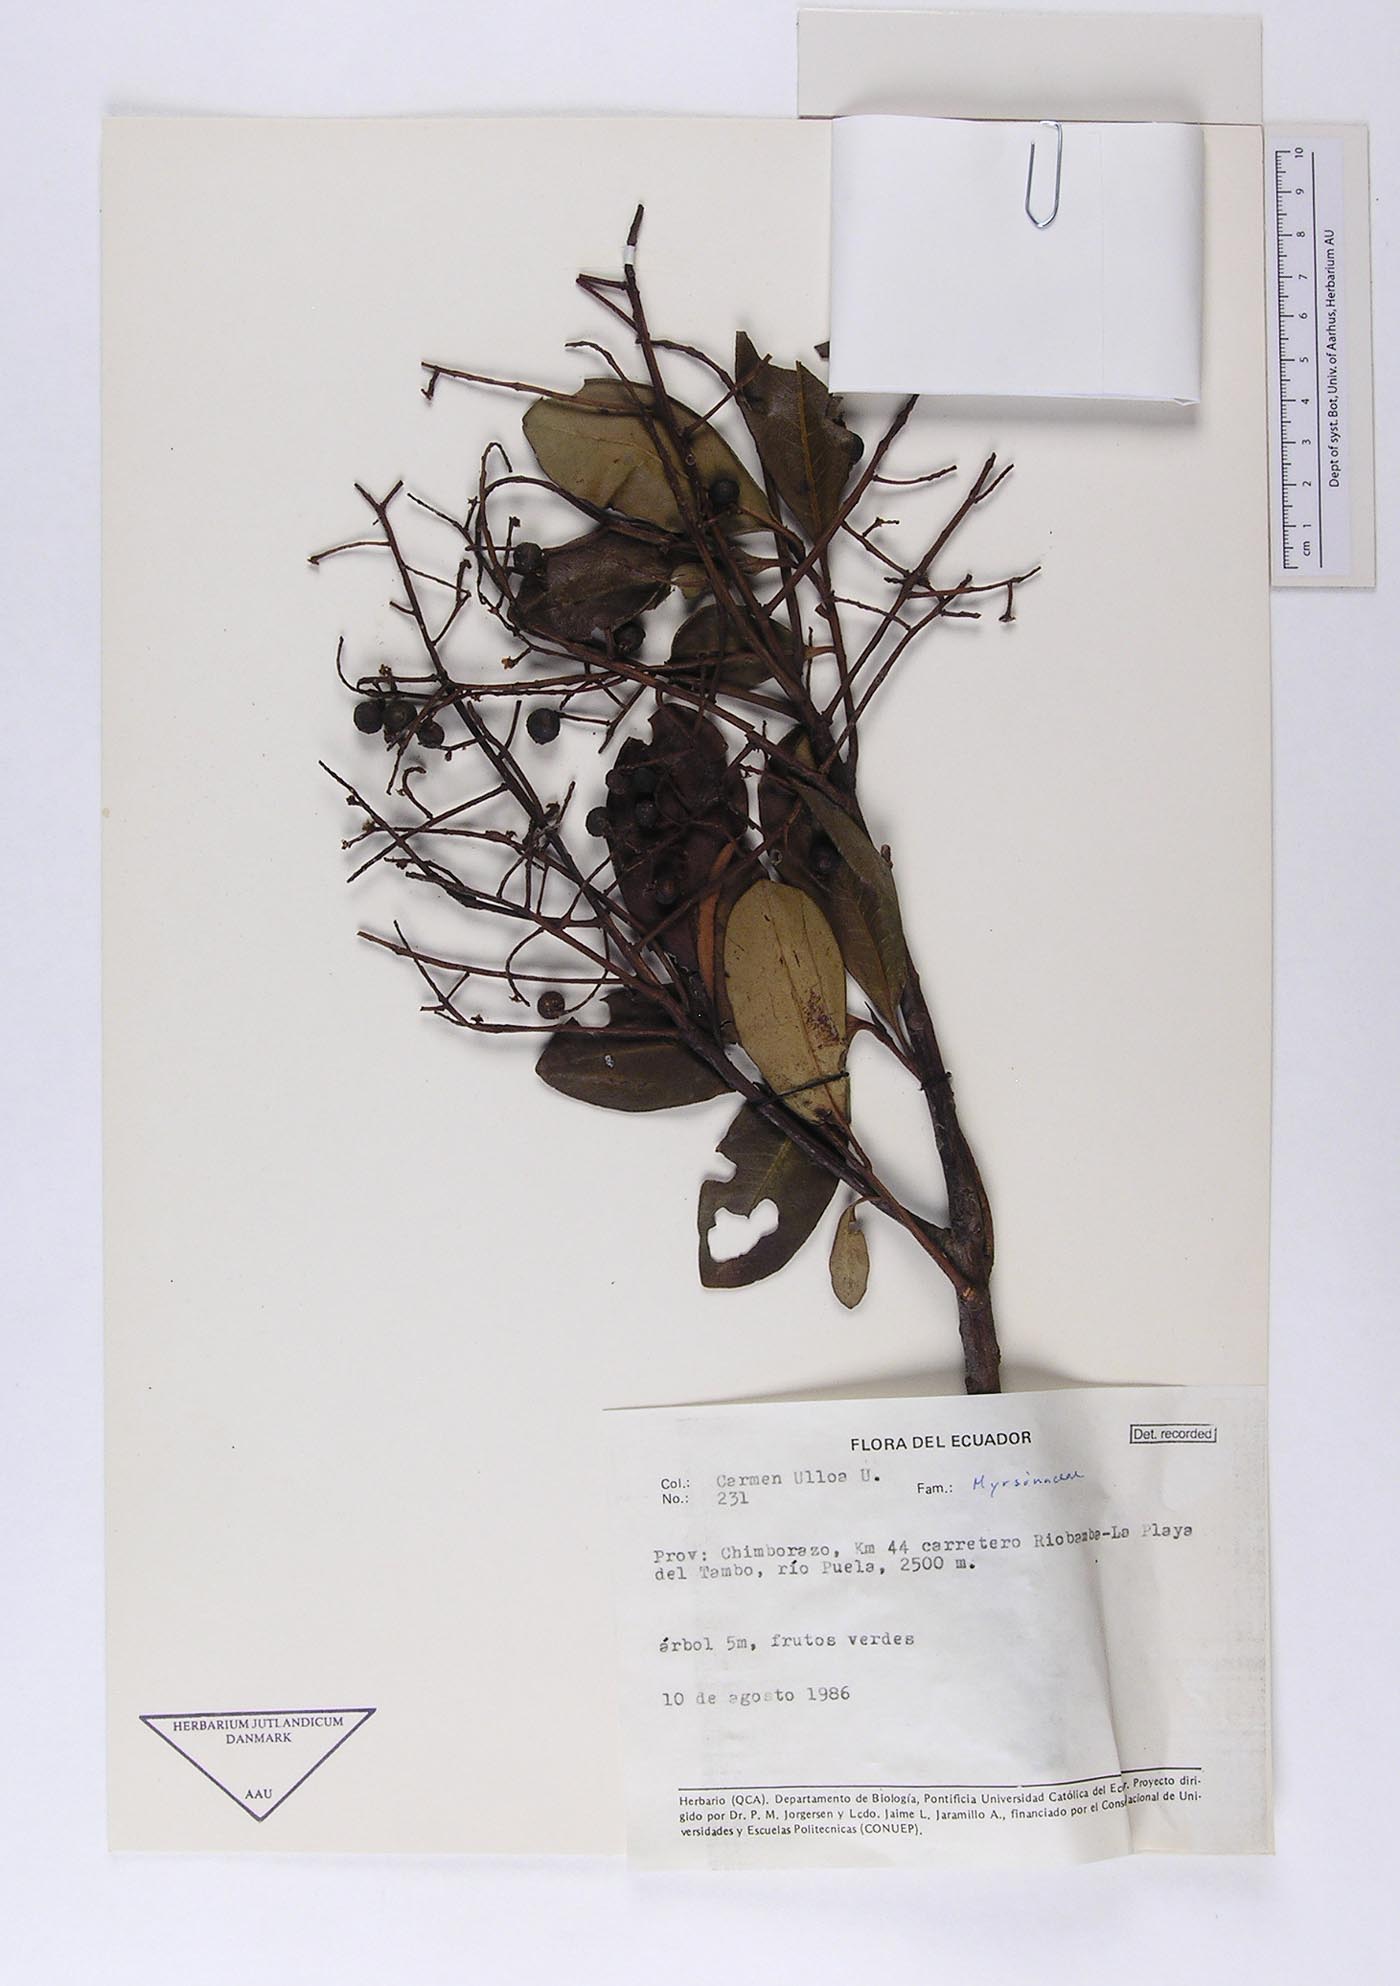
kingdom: Plantae
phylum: Tracheophyta
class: Magnoliopsida
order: Ericales
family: Primulaceae
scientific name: Primulaceae
